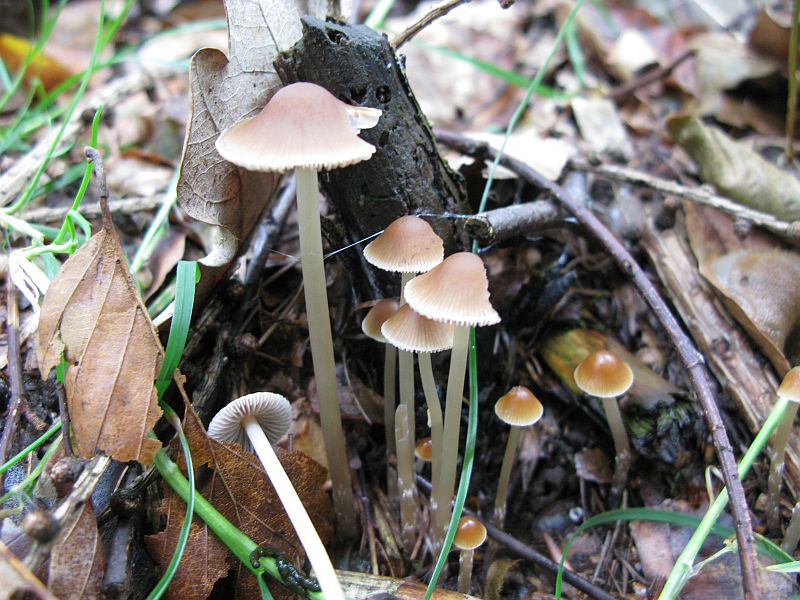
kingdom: Fungi
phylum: Basidiomycota
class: Agaricomycetes
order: Agaricales
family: Psathyrellaceae
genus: Psathyrella
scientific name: Psathyrella corrugis
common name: rødægget mørkhat
